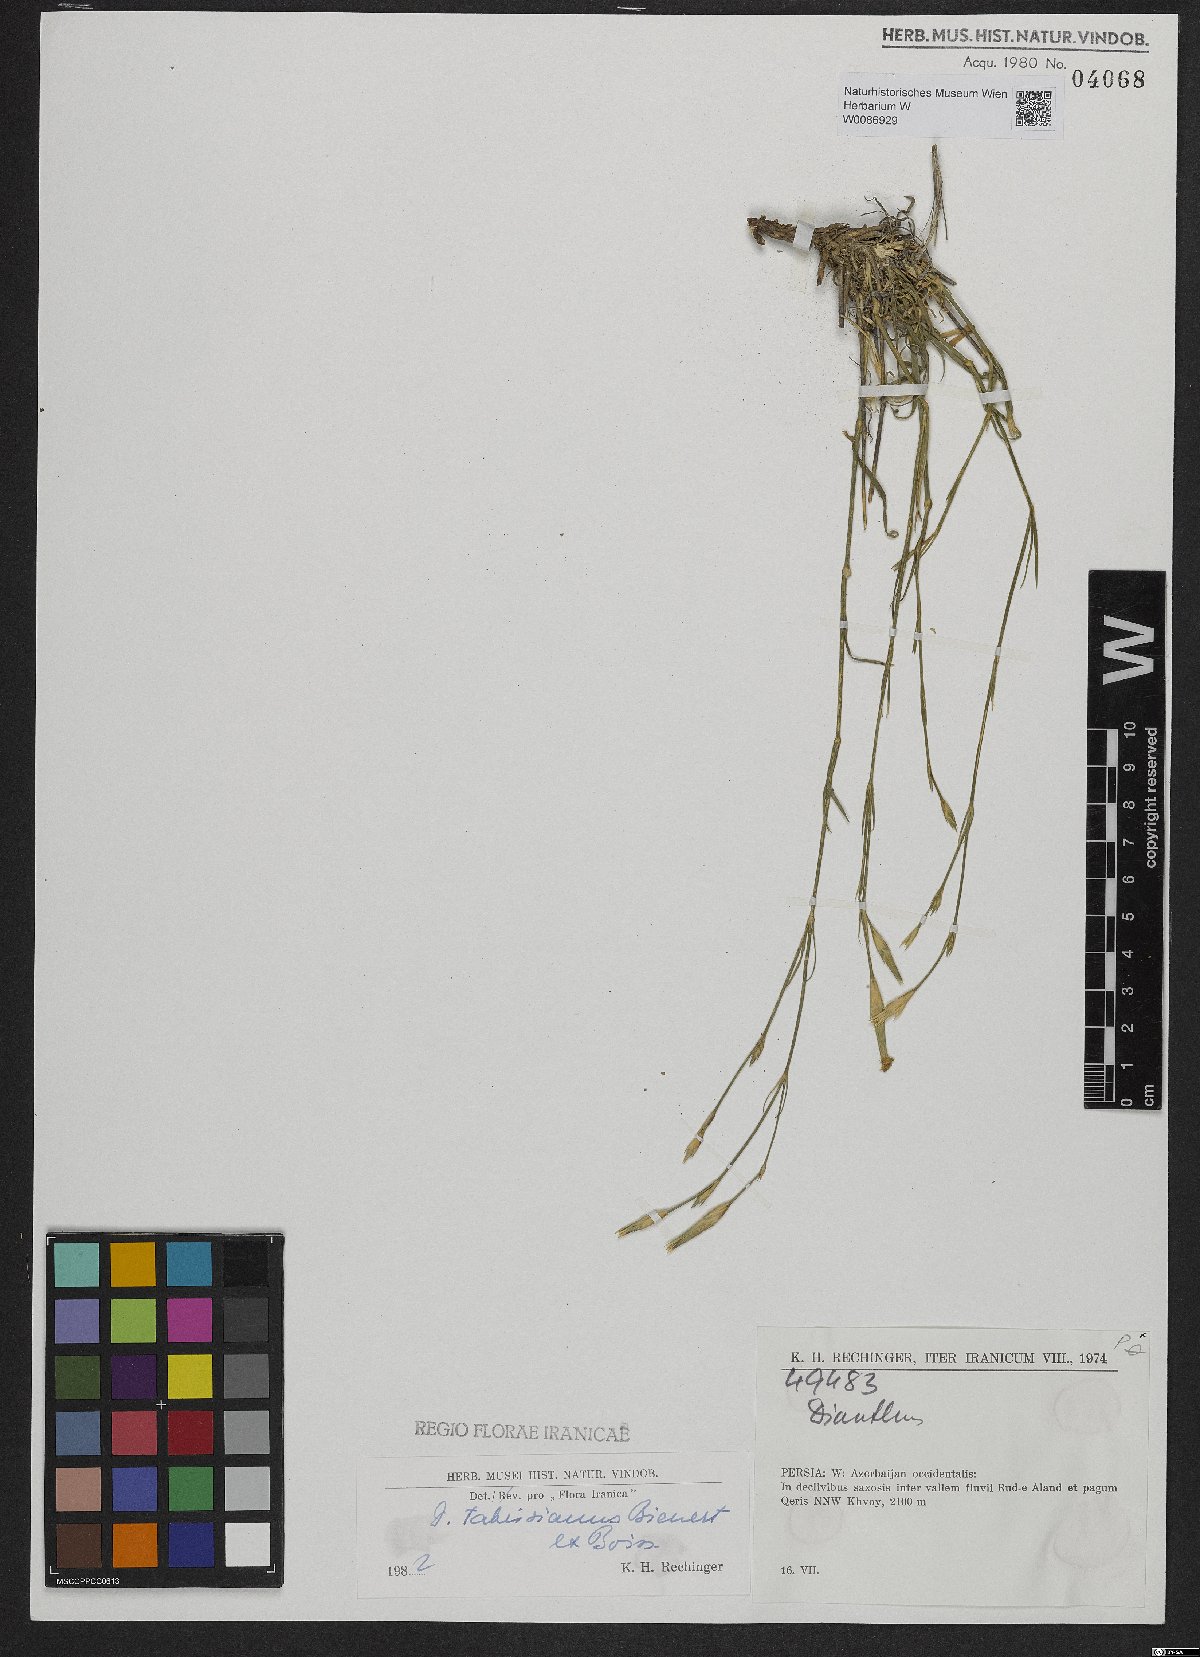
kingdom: Plantae
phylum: Tracheophyta
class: Magnoliopsida
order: Caryophyllales
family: Caryophyllaceae
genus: Dianthus
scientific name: Dianthus tabrisianus
